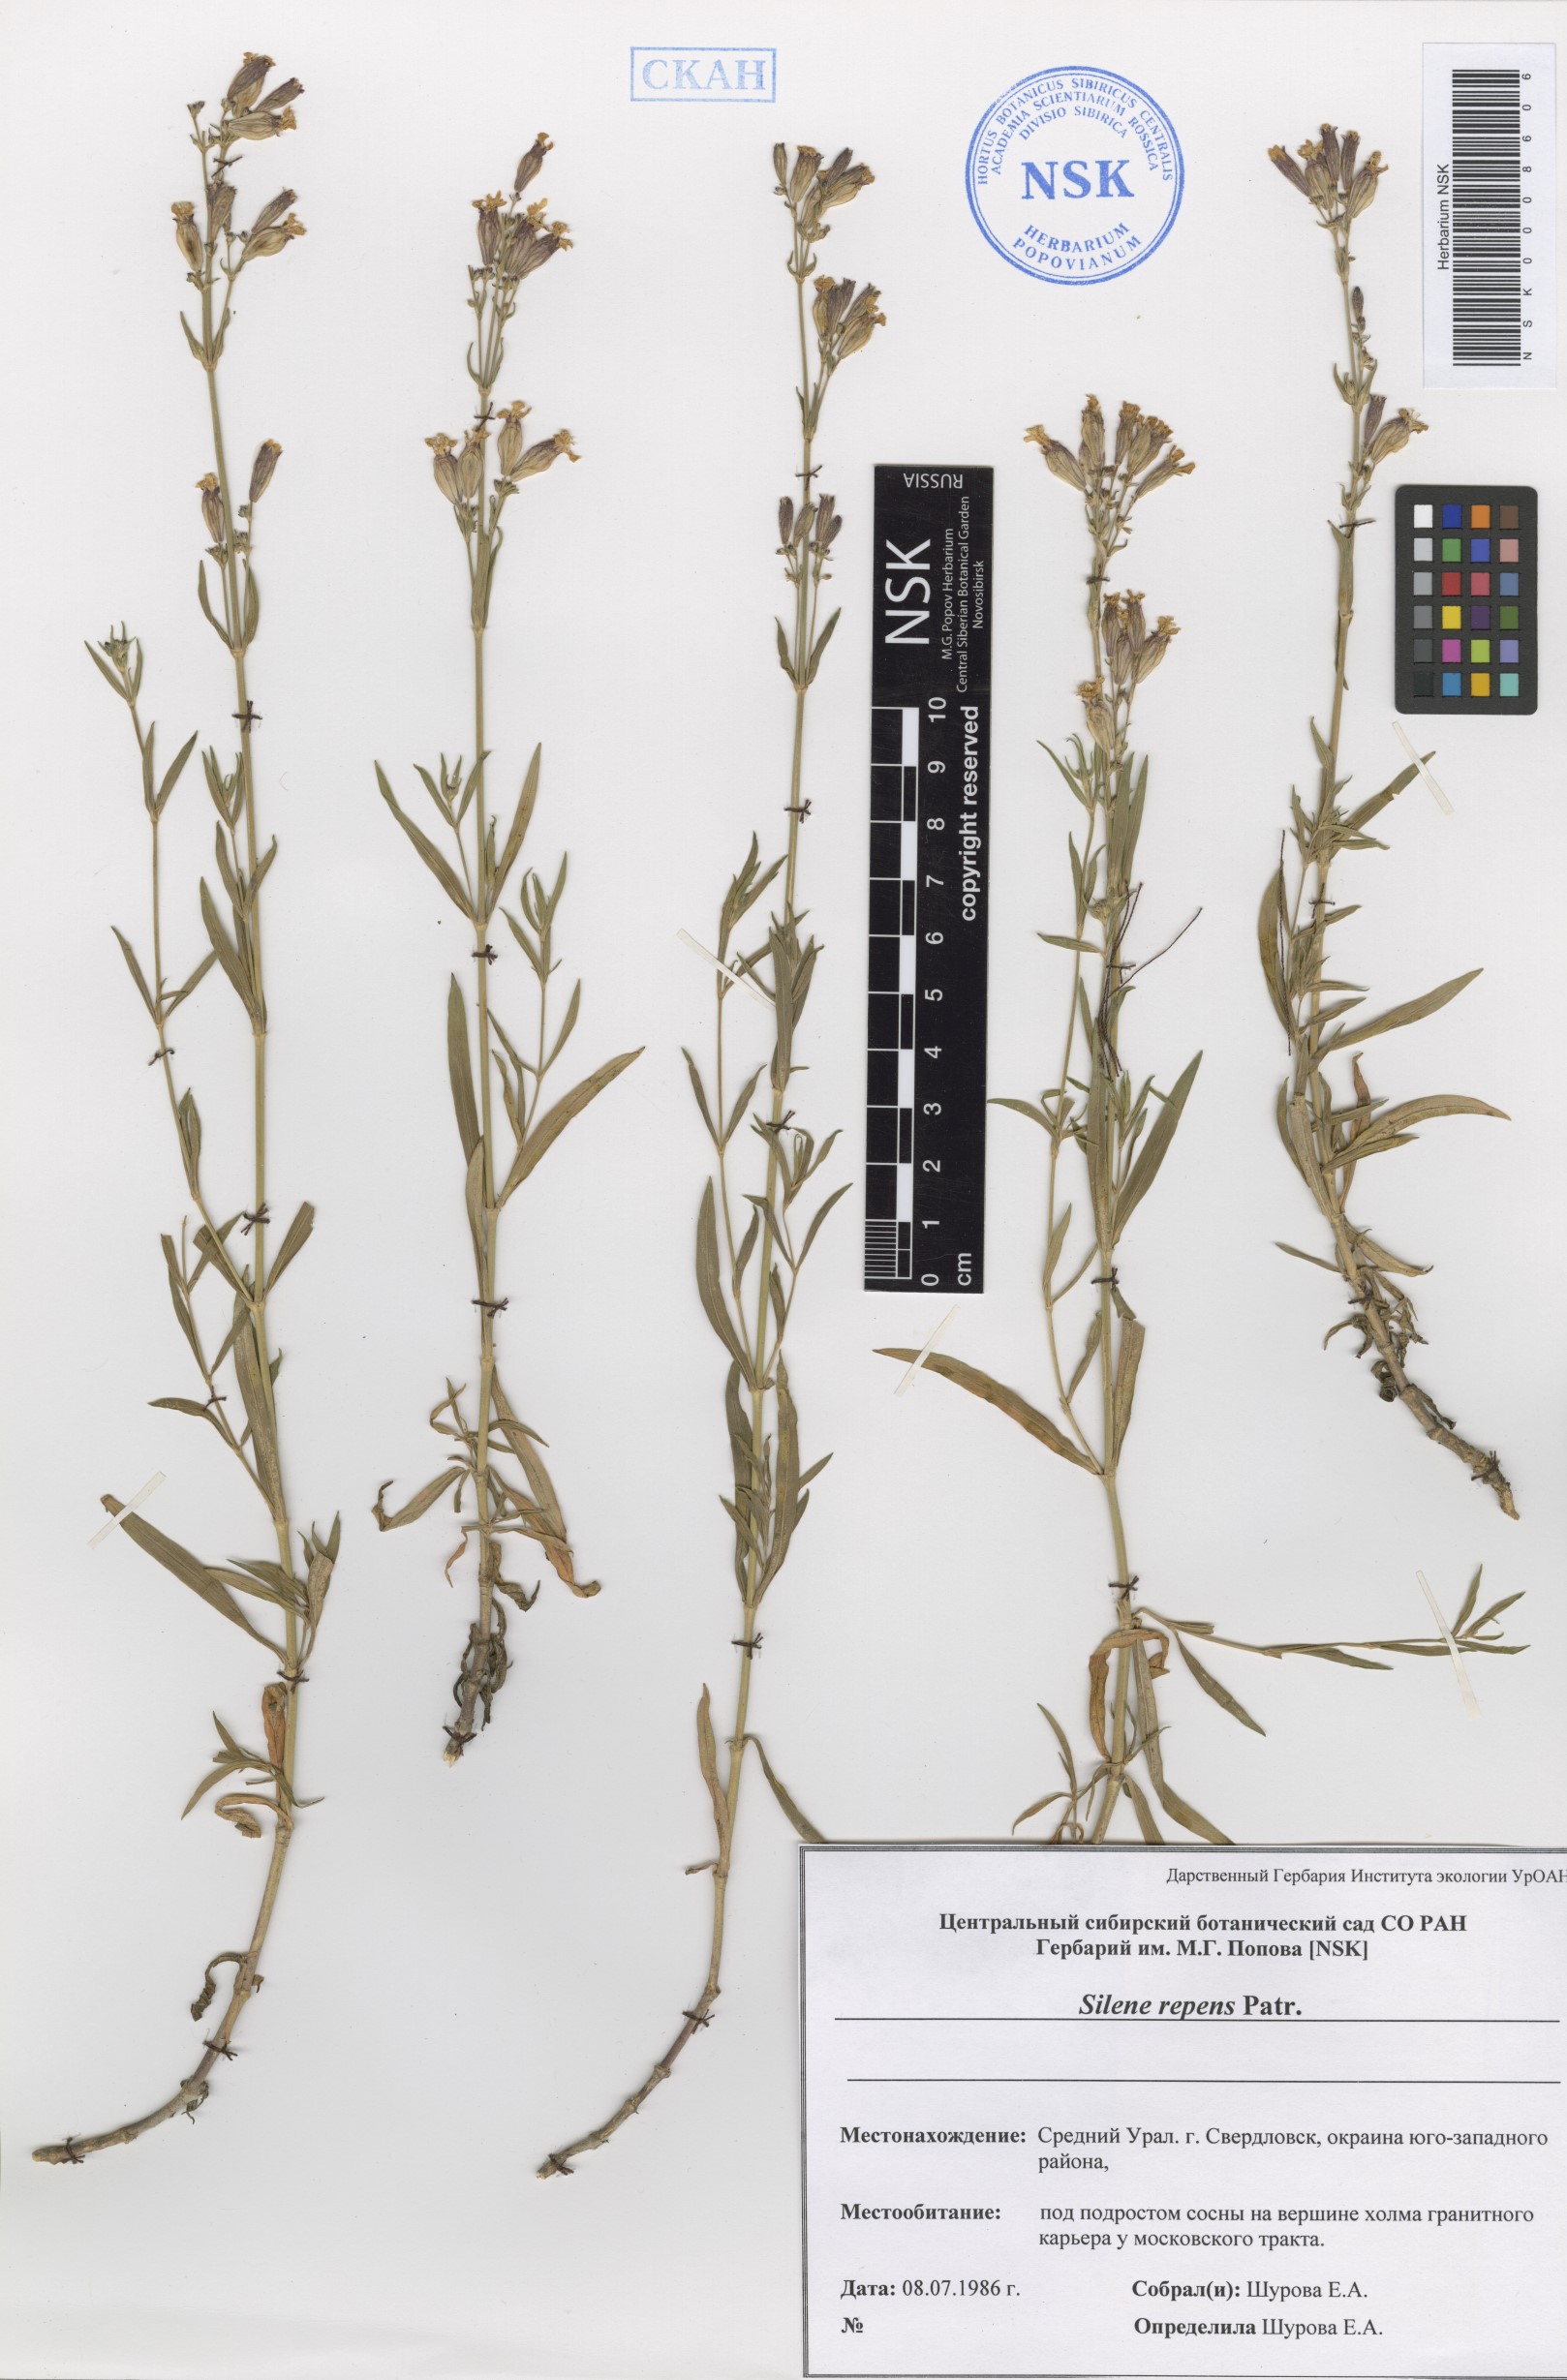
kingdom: Plantae
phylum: Tracheophyta
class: Magnoliopsida
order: Caryophyllales
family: Caryophyllaceae
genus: Silene
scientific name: Silene repens
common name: Pink campion
